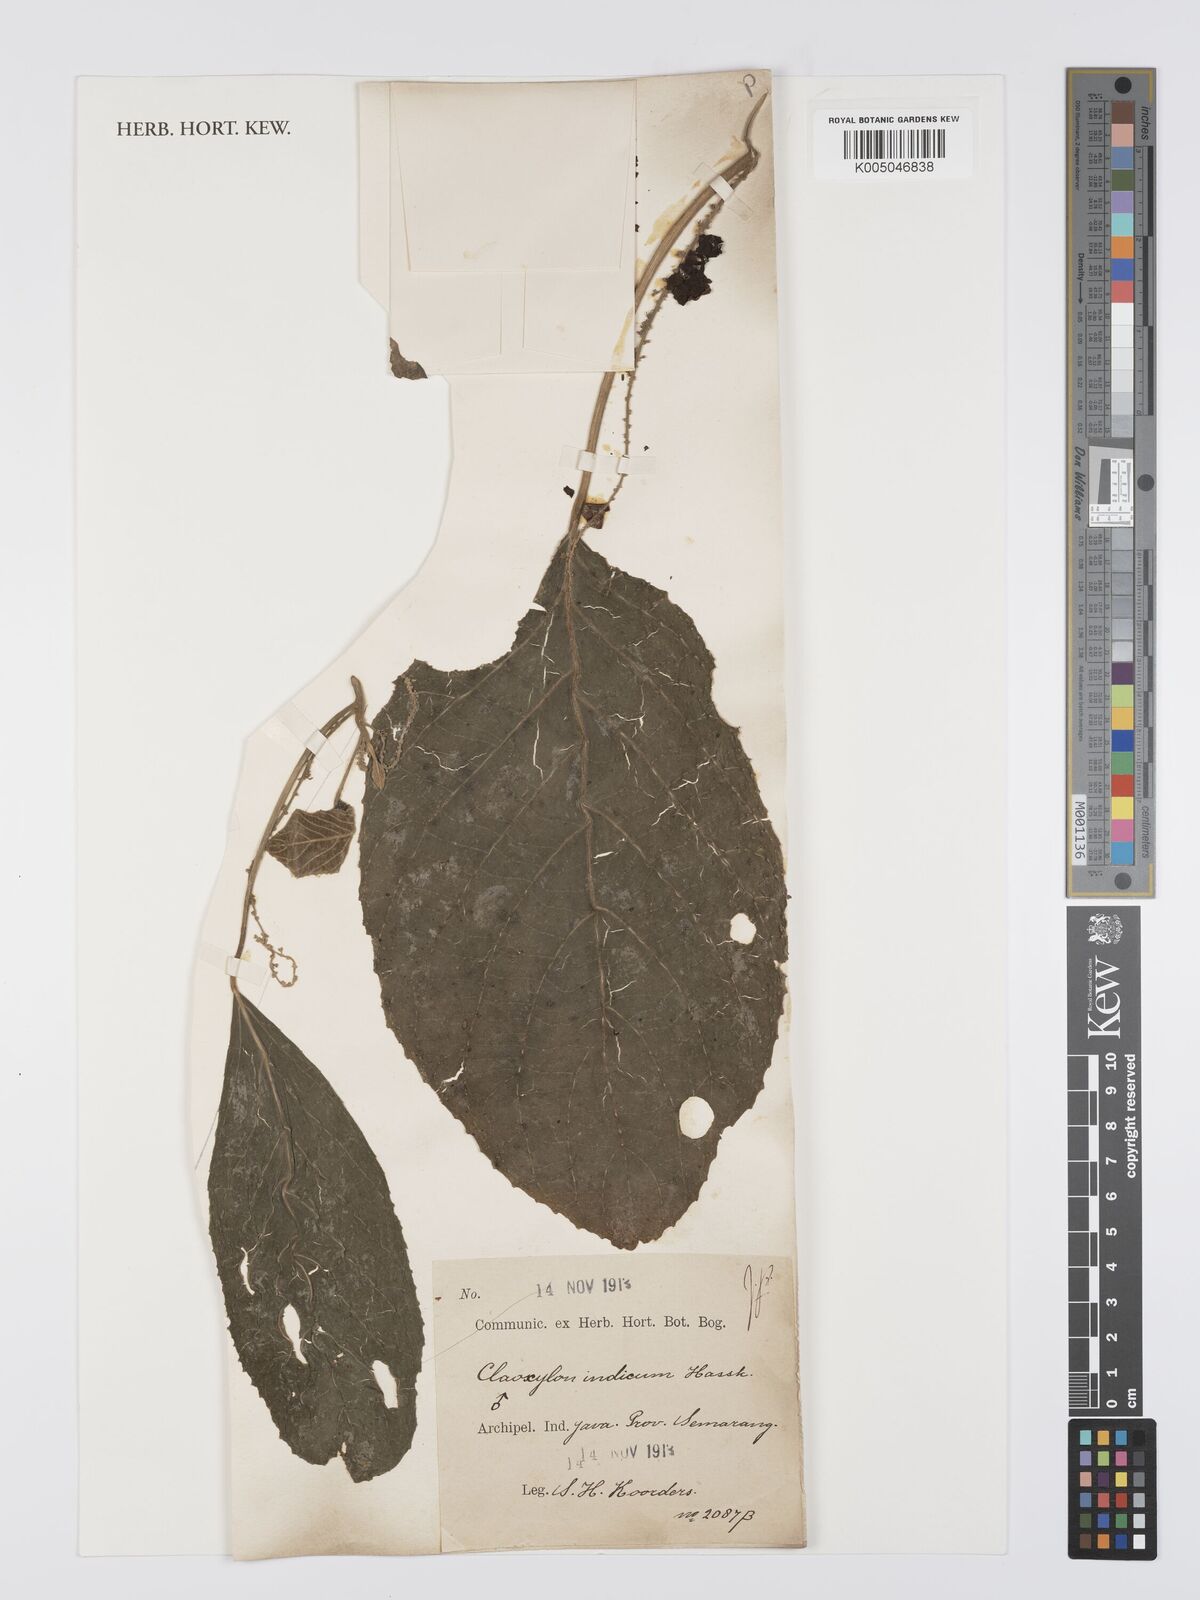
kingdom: Plantae
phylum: Tracheophyta
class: Magnoliopsida
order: Malpighiales
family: Euphorbiaceae
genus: Claoxylon
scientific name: Claoxylon indicum
